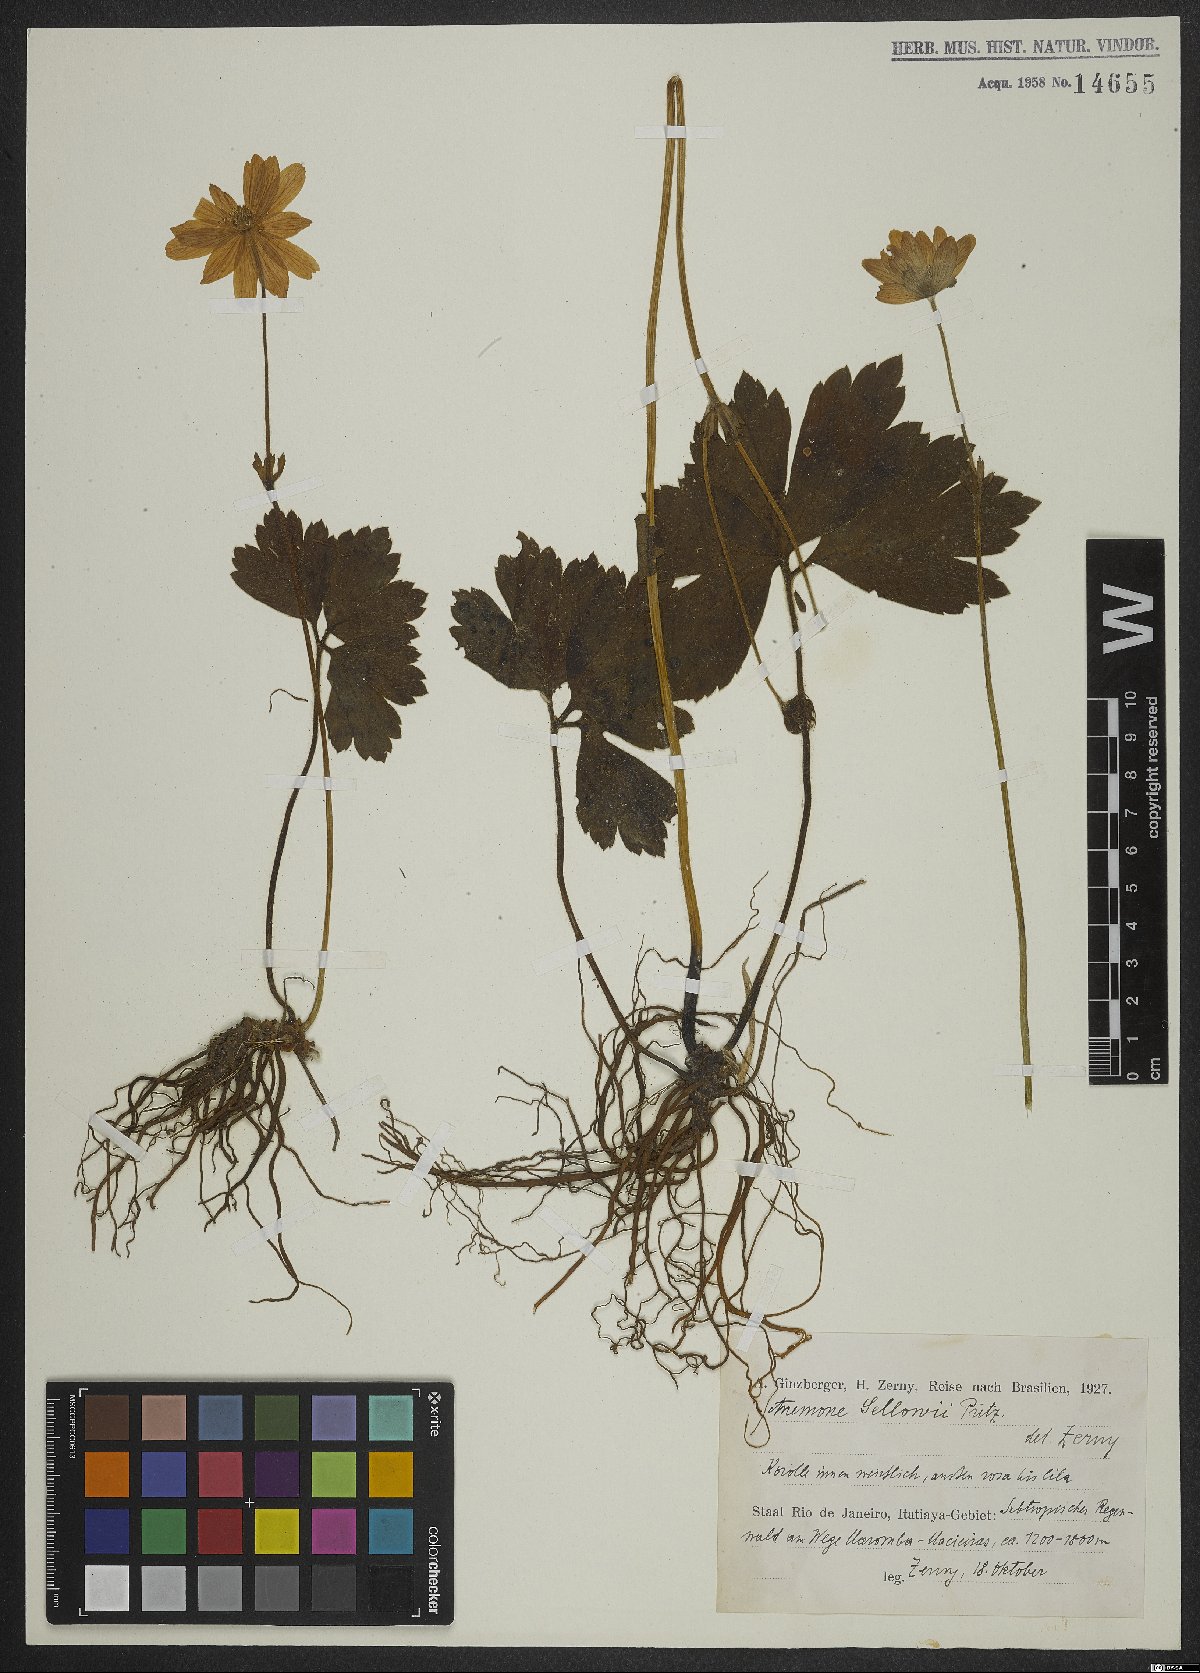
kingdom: Plantae
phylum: Tracheophyta
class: Magnoliopsida
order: Ranunculales
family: Ranunculaceae
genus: Knowltonia
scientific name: Knowltonia sellowii
